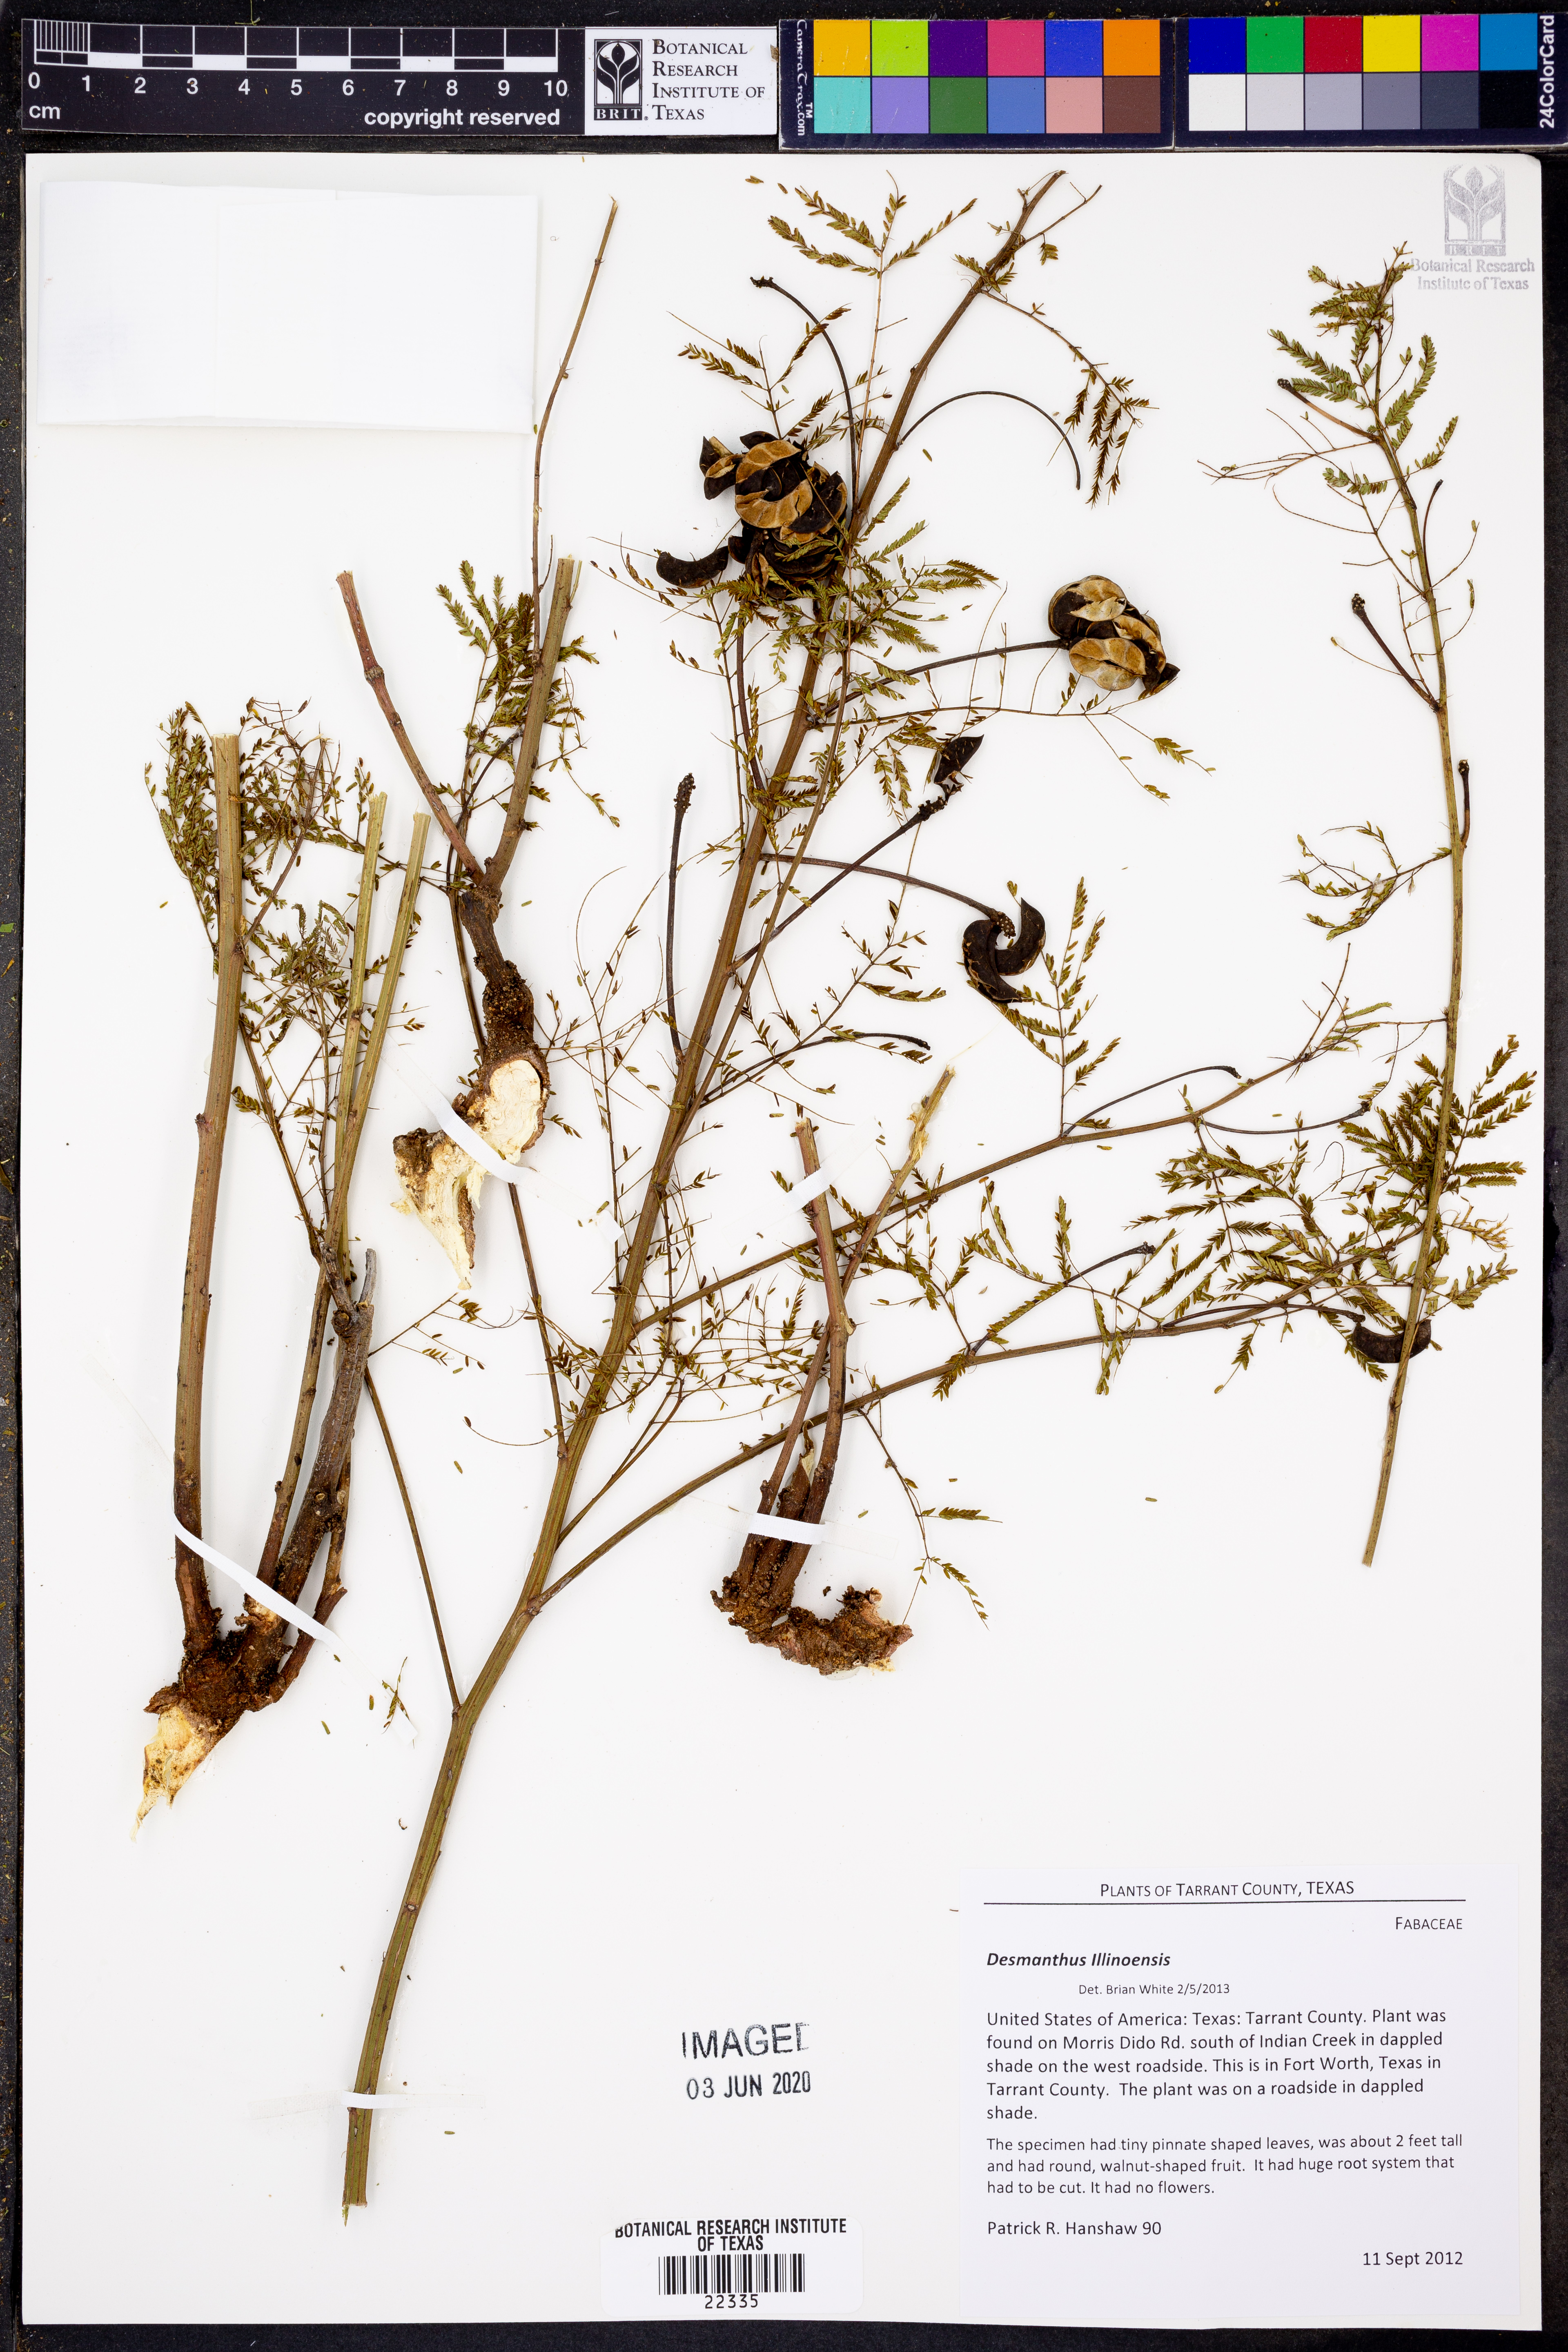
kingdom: Plantae
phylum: Tracheophyta
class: Magnoliopsida
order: Fabales
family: Fabaceae
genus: Desmanthus
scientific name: Desmanthus
